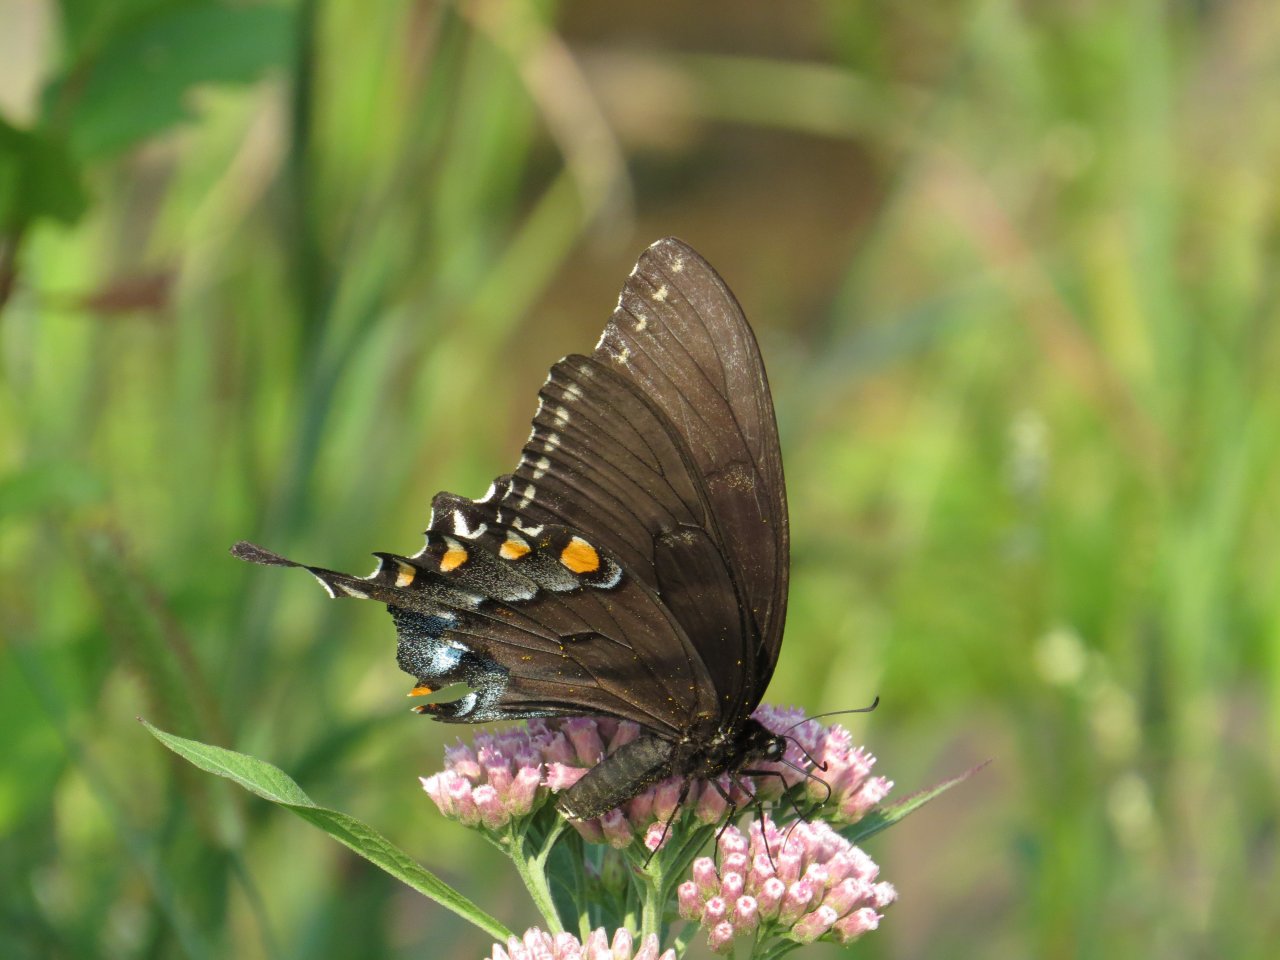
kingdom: Animalia
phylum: Arthropoda
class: Insecta
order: Lepidoptera
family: Papilionidae
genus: Pterourus
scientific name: Pterourus glaucus
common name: Eastern Tiger Swallowtail
